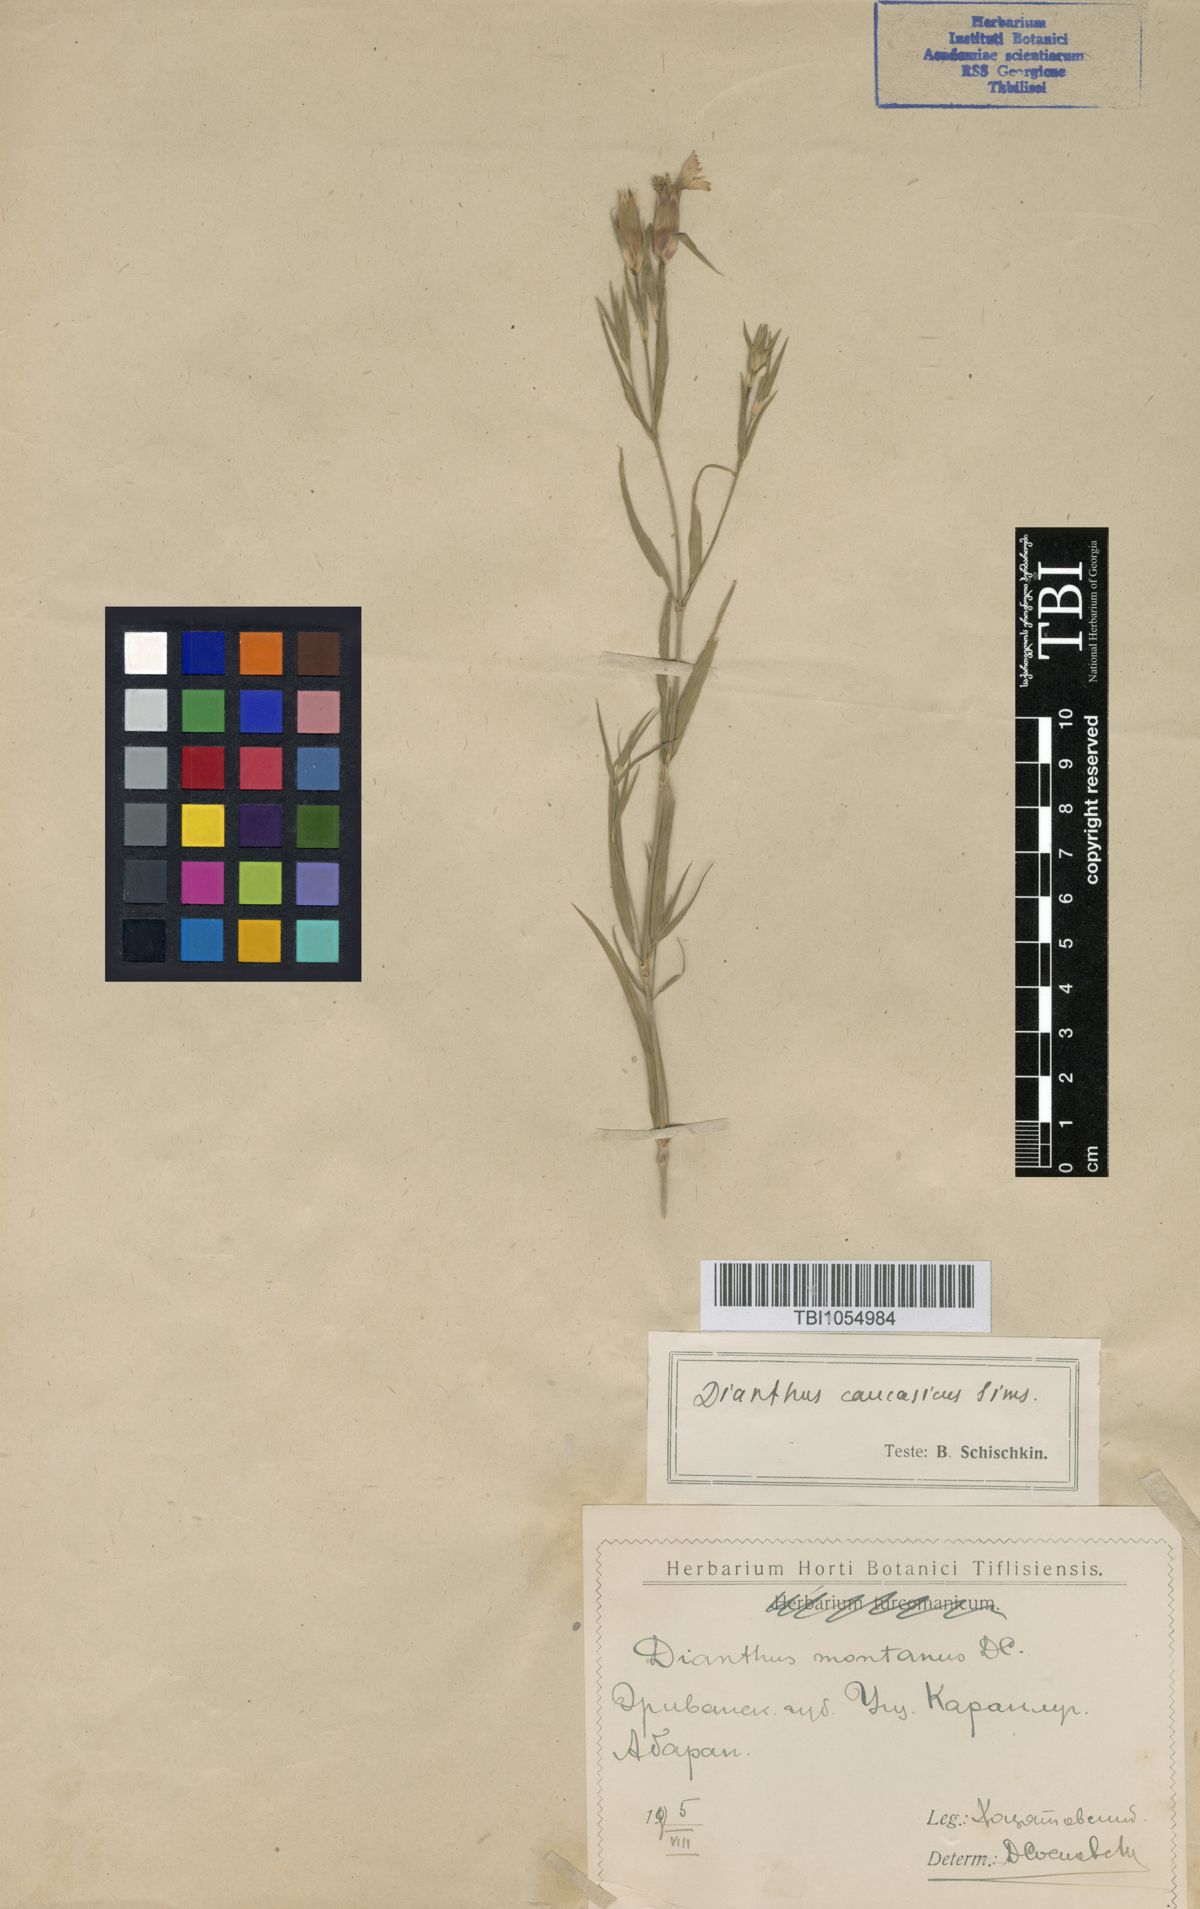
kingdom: Plantae
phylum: Tracheophyta
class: Magnoliopsida
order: Caryophyllales
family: Caryophyllaceae
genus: Dianthus
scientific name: Dianthus caucaseus
